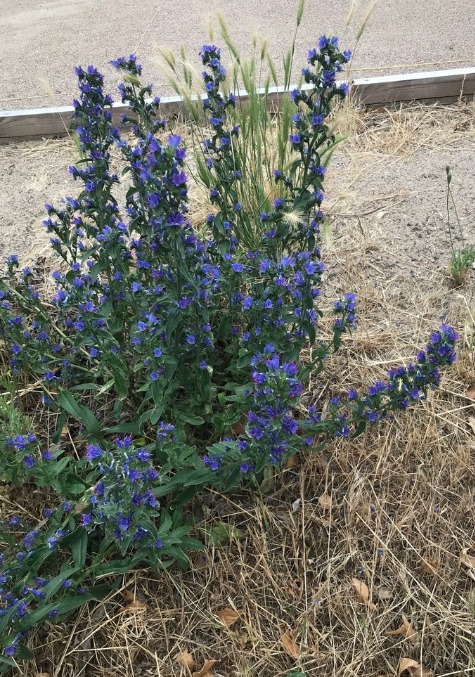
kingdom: Plantae
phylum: Tracheophyta
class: Magnoliopsida
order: Boraginales
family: Boraginaceae
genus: Echium
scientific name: Echium
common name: Slangehovedslægten
